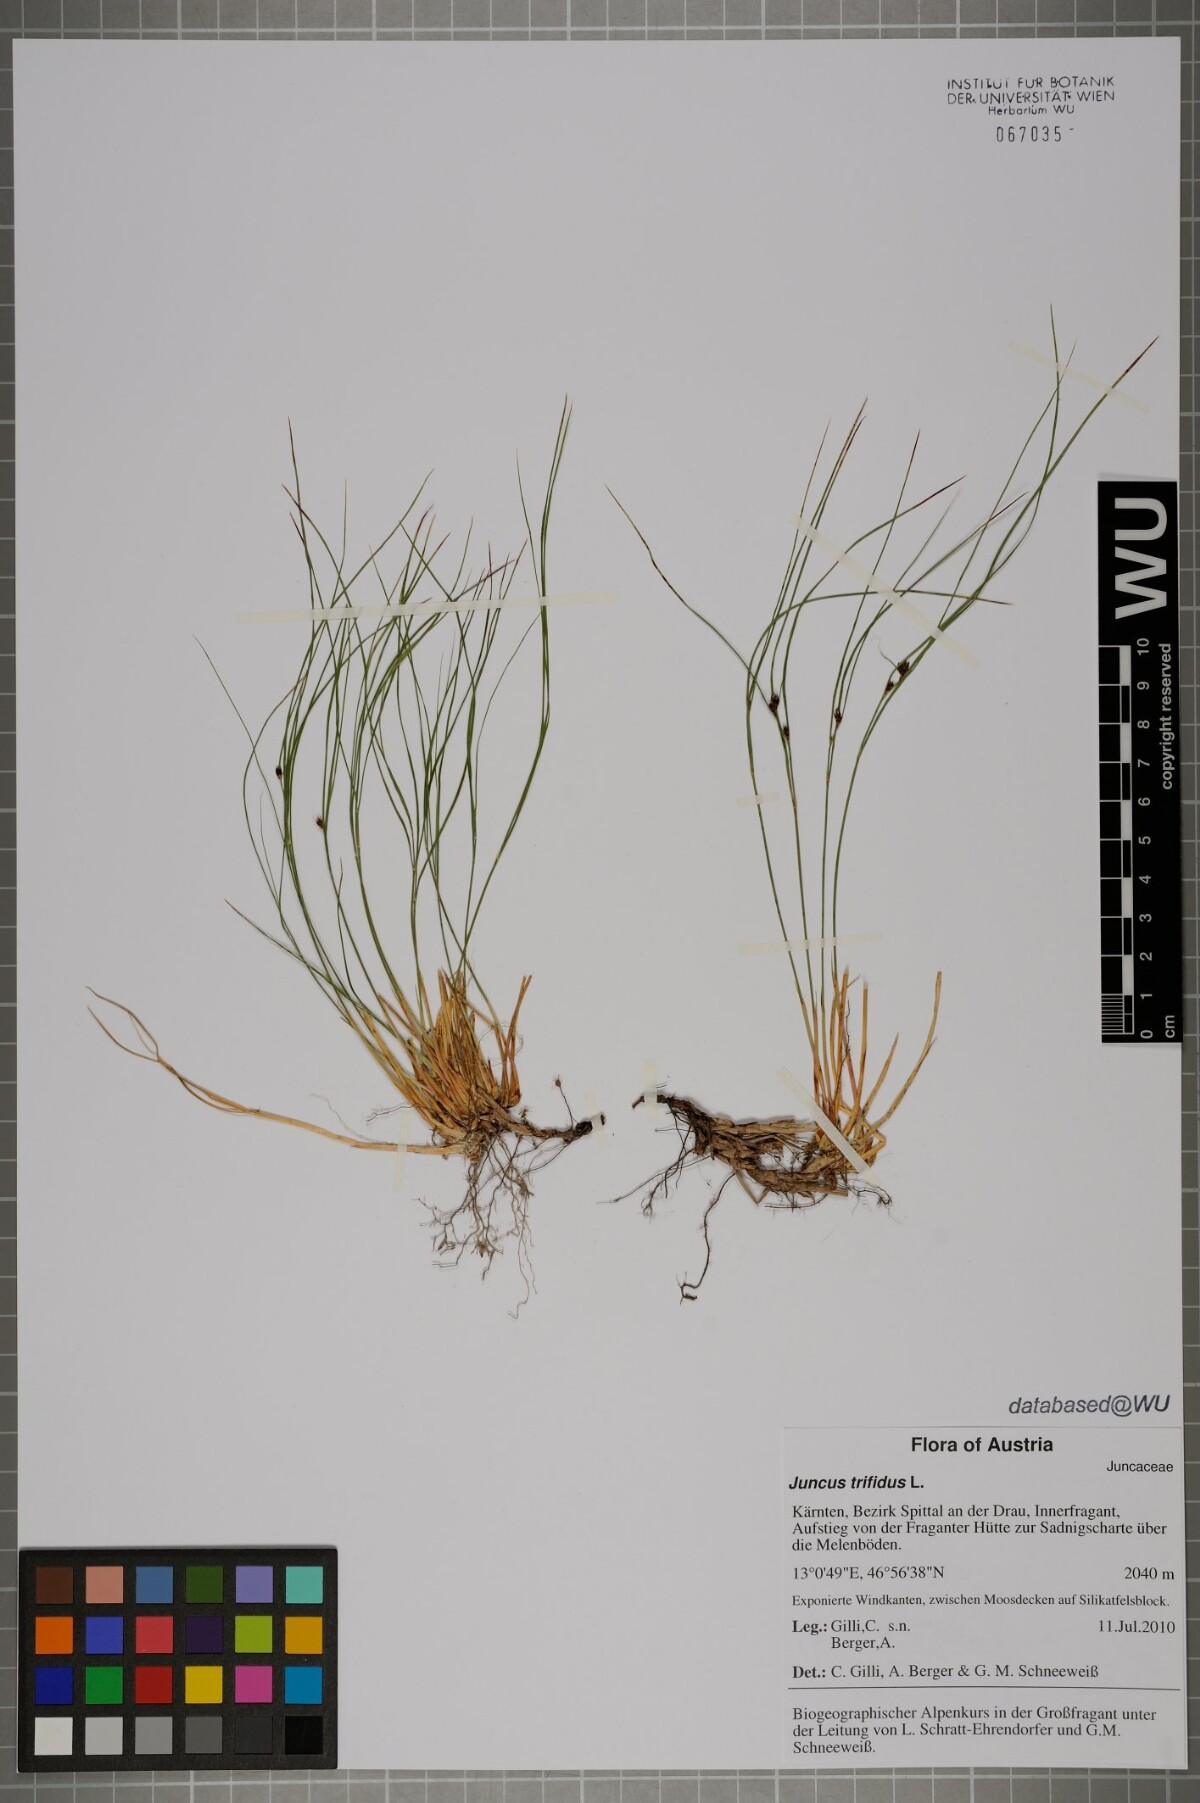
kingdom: Plantae
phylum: Tracheophyta
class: Liliopsida
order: Poales
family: Juncaceae
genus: Oreojuncus
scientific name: Oreojuncus trifidus
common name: Highland rush
